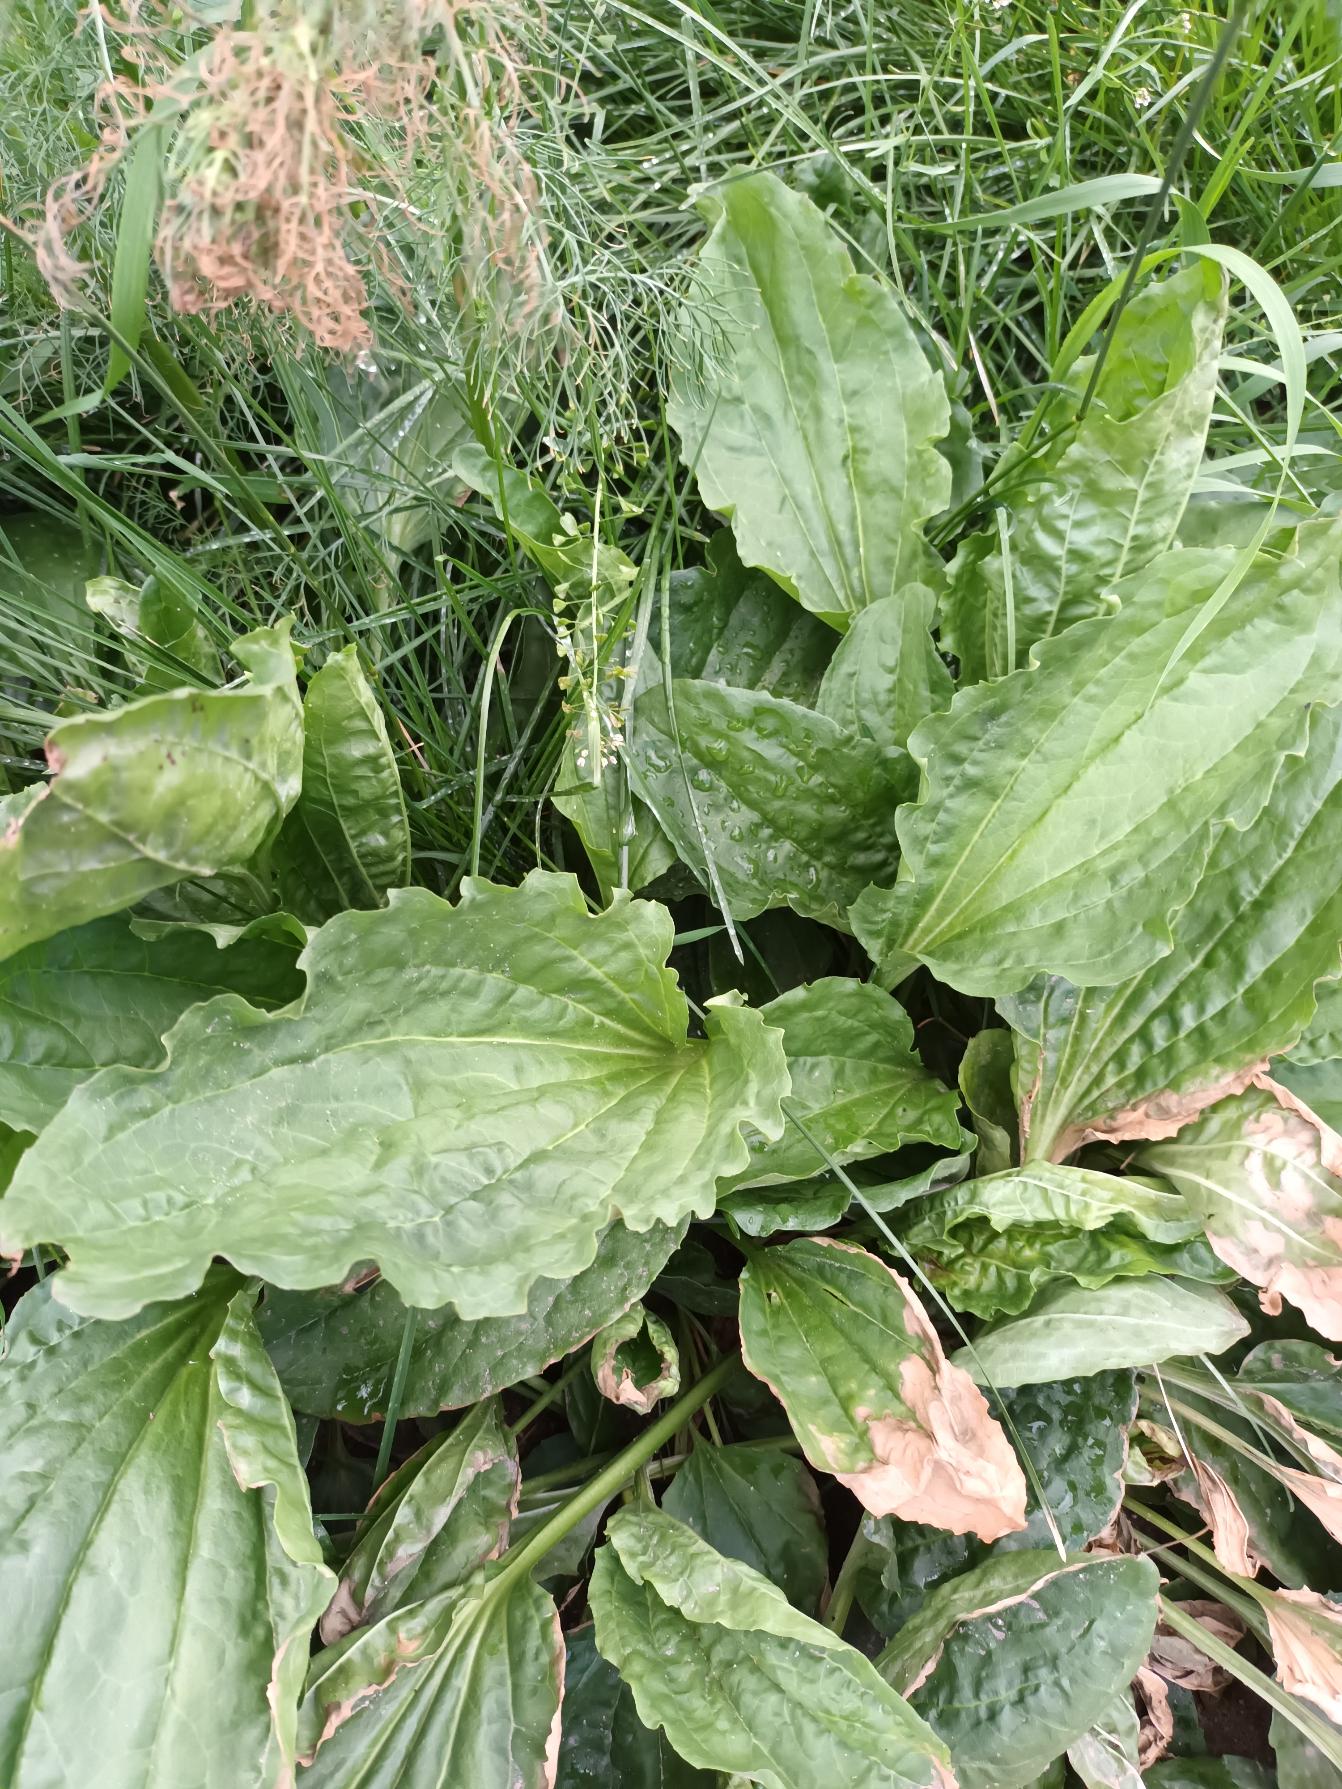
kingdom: Plantae
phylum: Tracheophyta
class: Magnoliopsida
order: Lamiales
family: Plantaginaceae
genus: Plantago
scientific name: Plantago major
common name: Glat vejbred
